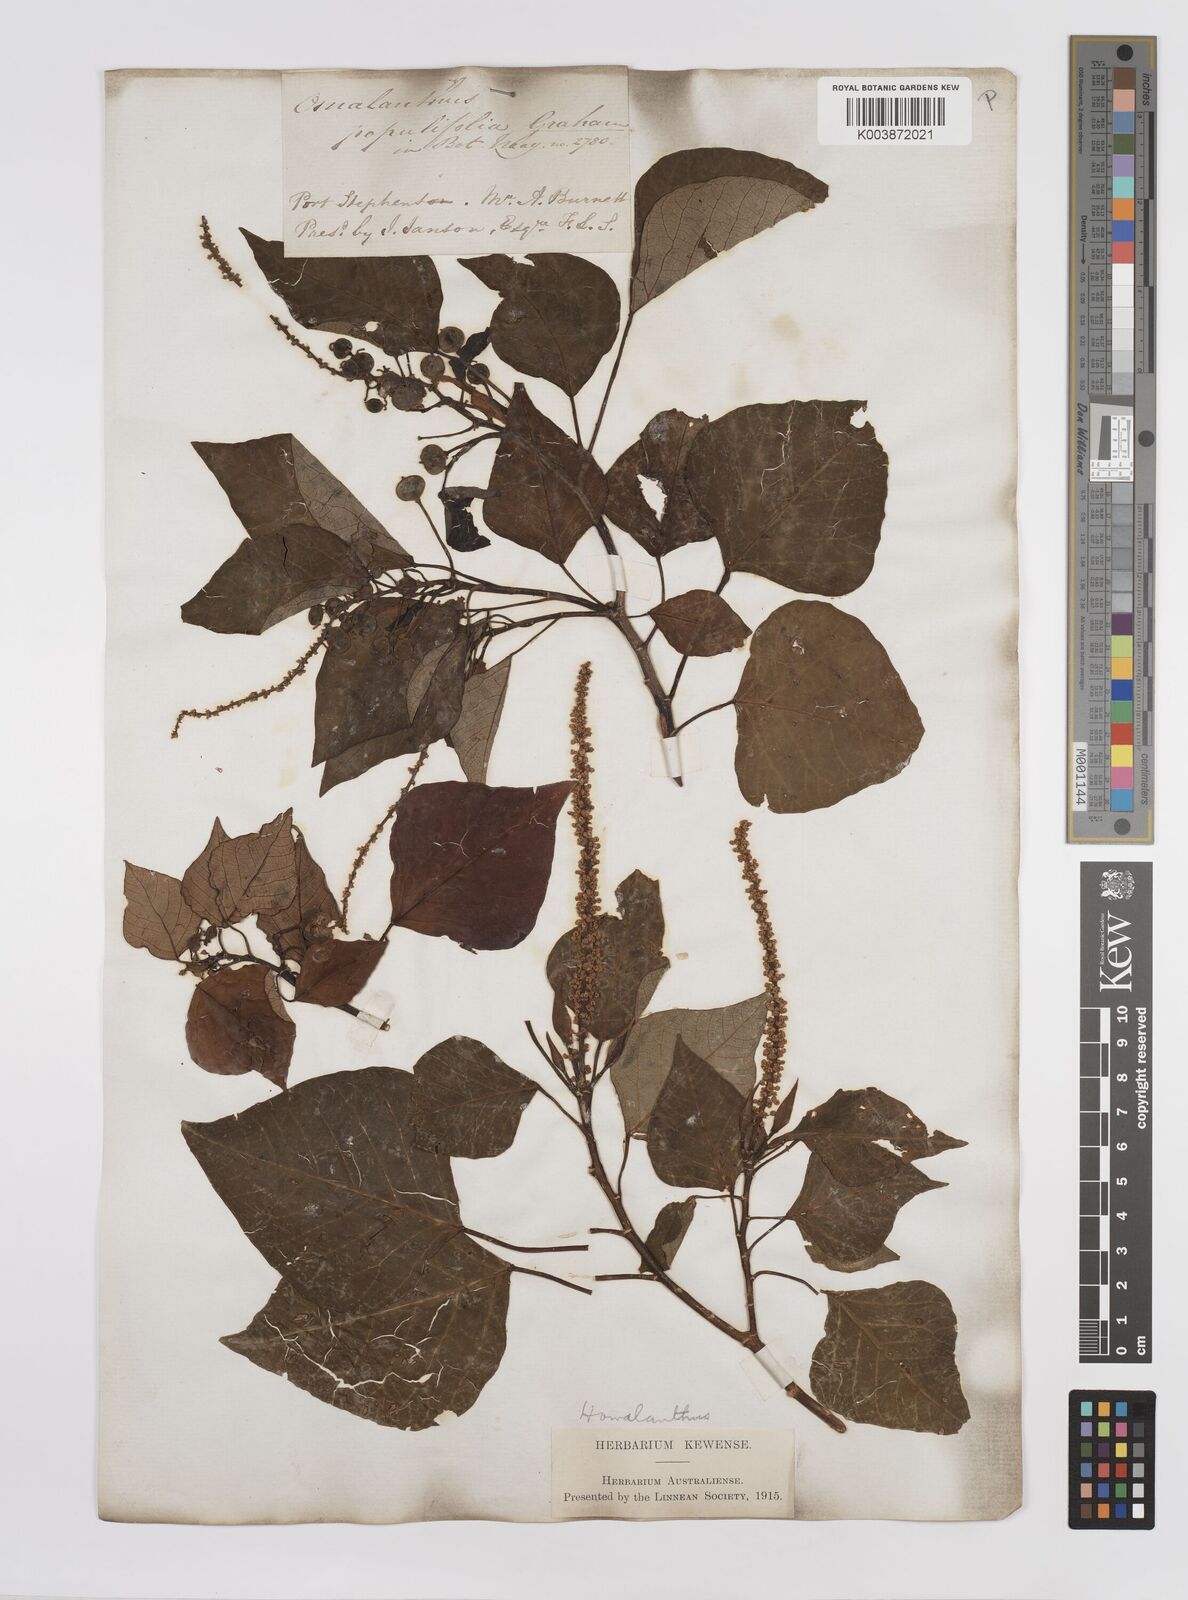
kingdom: Plantae
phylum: Tracheophyta
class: Magnoliopsida
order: Malpighiales
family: Euphorbiaceae
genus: Homalanthus
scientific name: Homalanthus populifolius
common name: Queensland poplar
